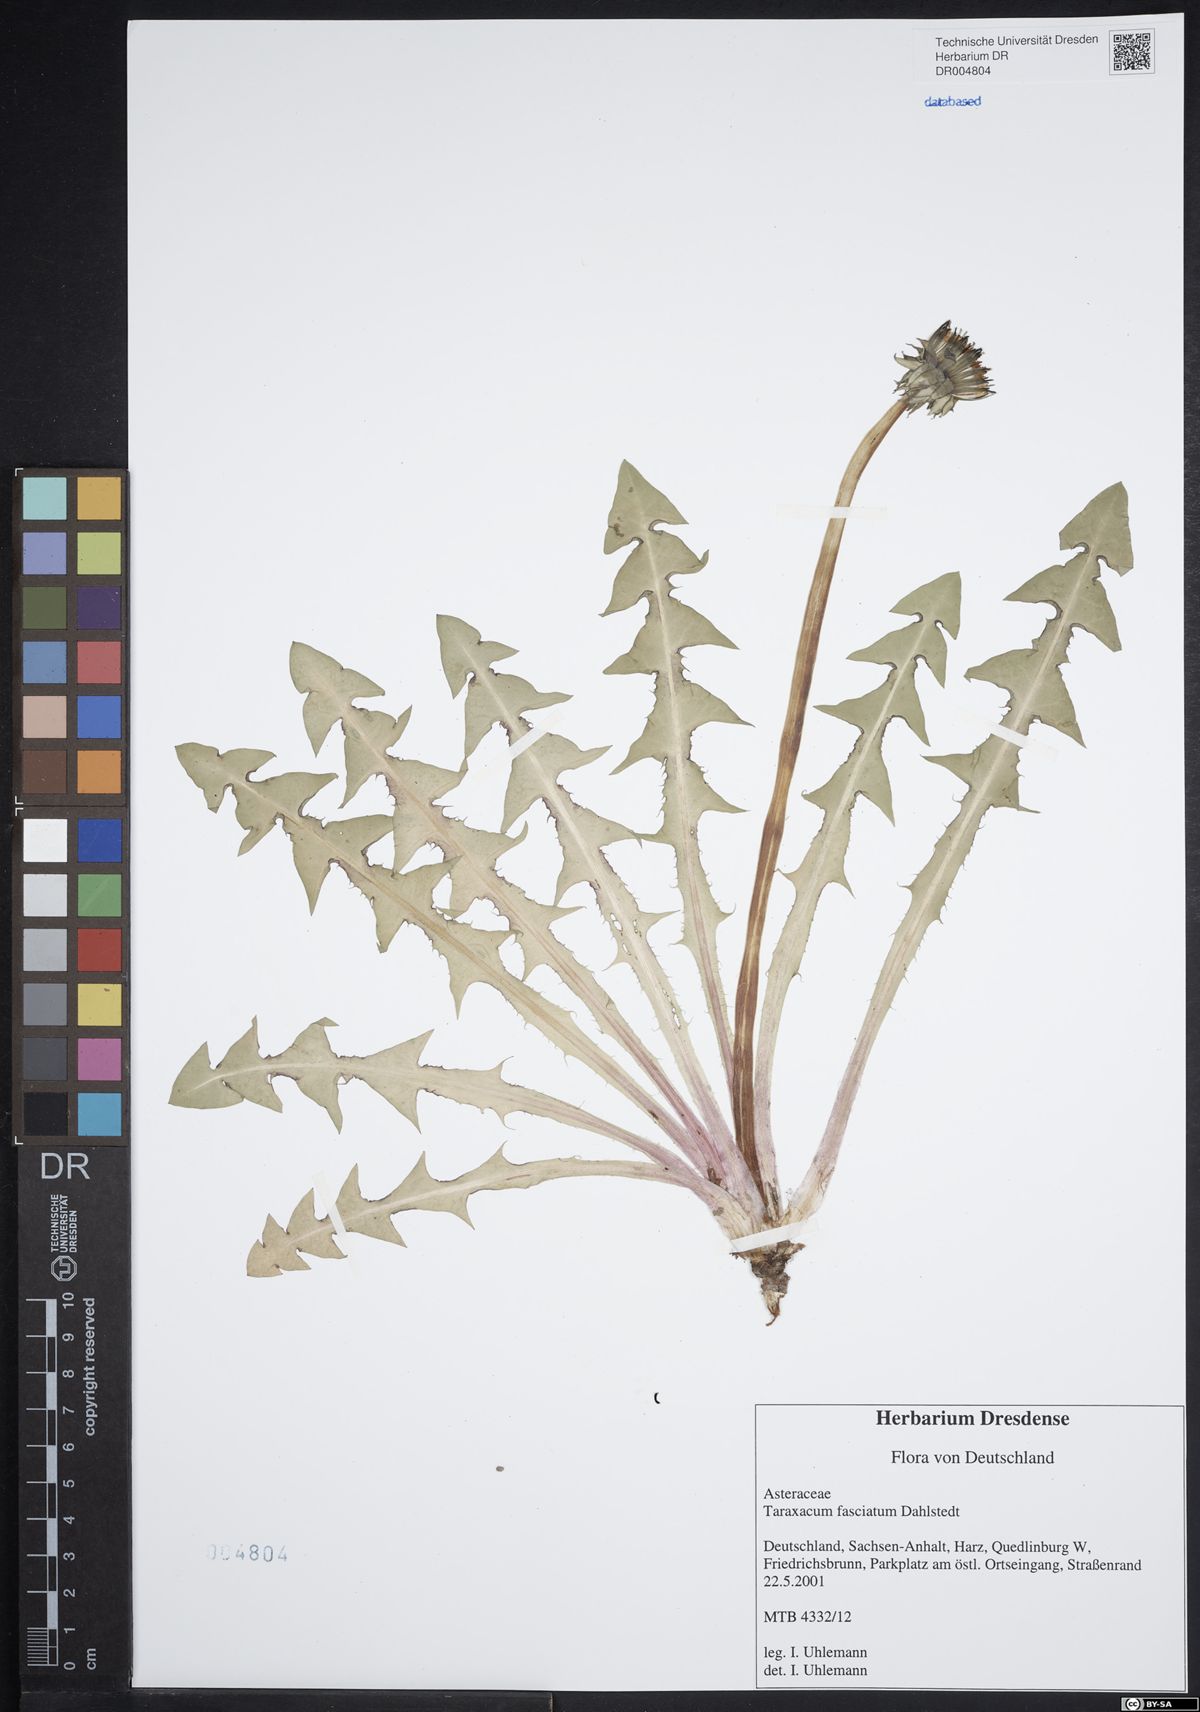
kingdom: Plantae
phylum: Tracheophyta
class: Magnoliopsida
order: Asterales
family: Asteraceae
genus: Taraxacum
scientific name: Taraxacum fasciatum
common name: Dense-bracted dandelion
